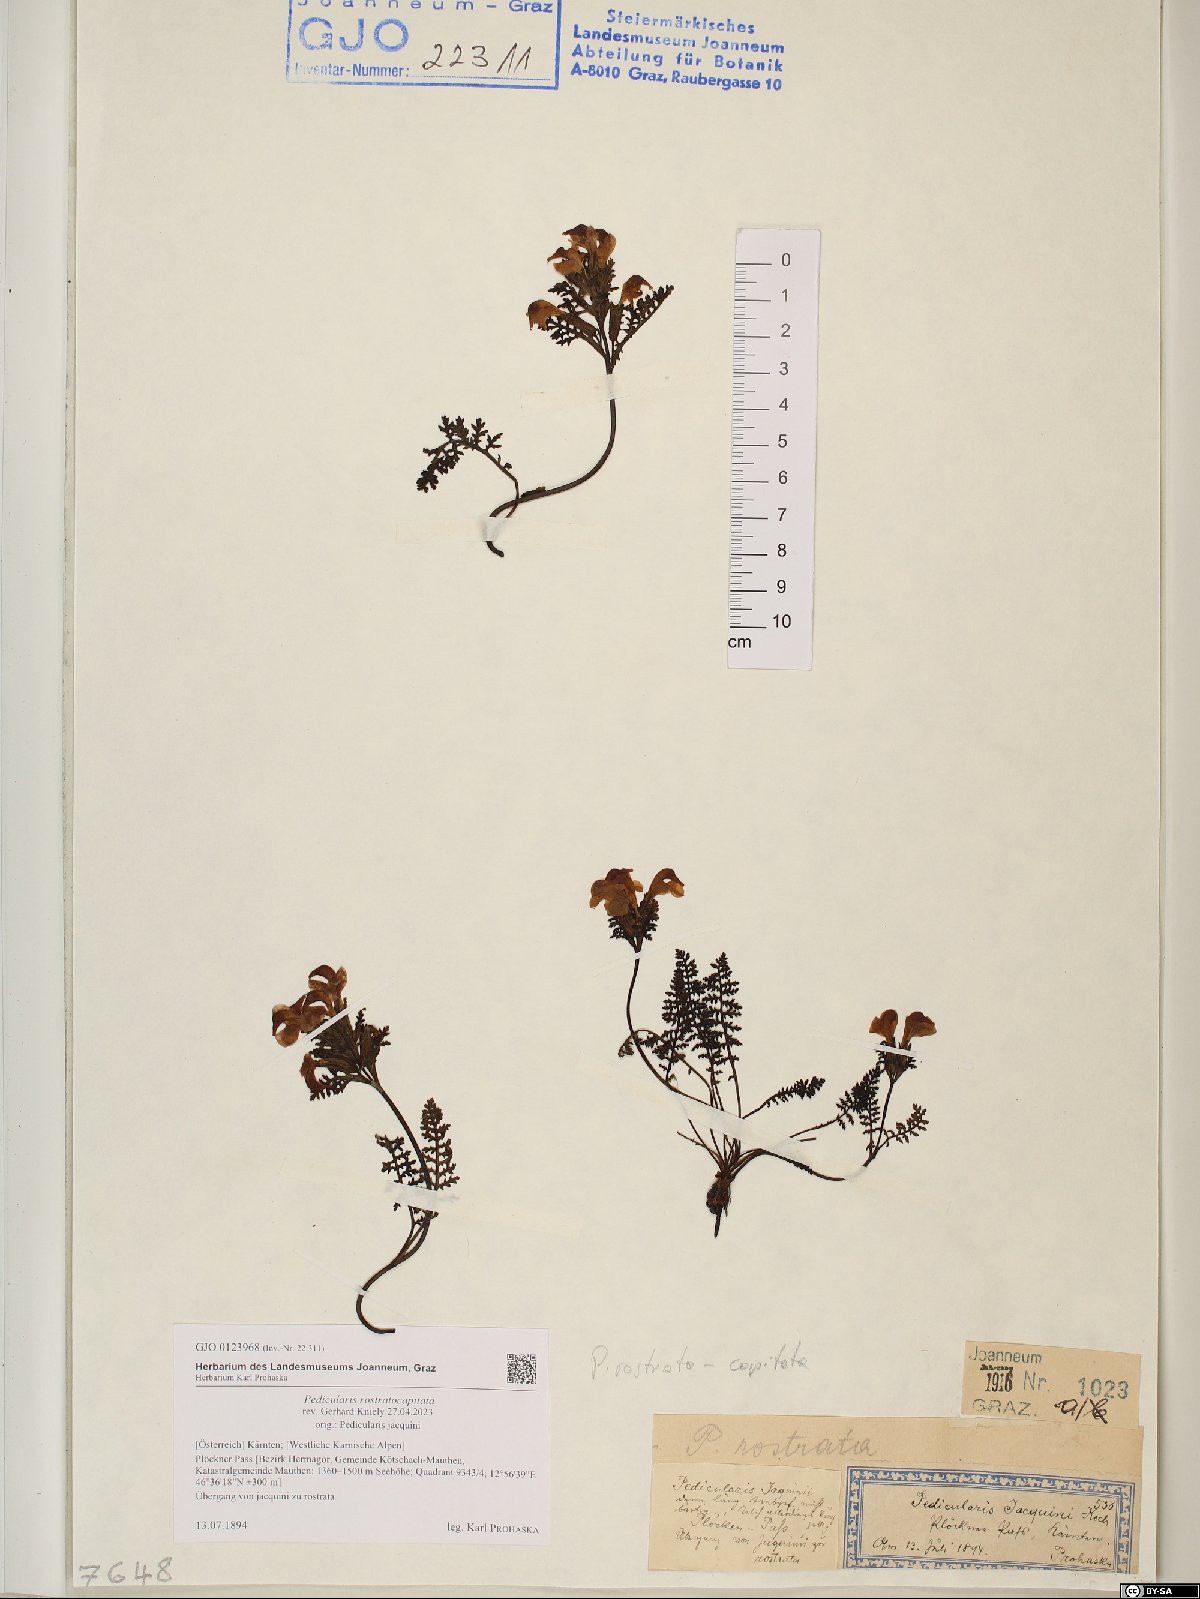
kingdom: Plantae
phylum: Tracheophyta
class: Magnoliopsida
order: Lamiales
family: Orobanchaceae
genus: Pedicularis
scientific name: Pedicularis rostratocapitata
